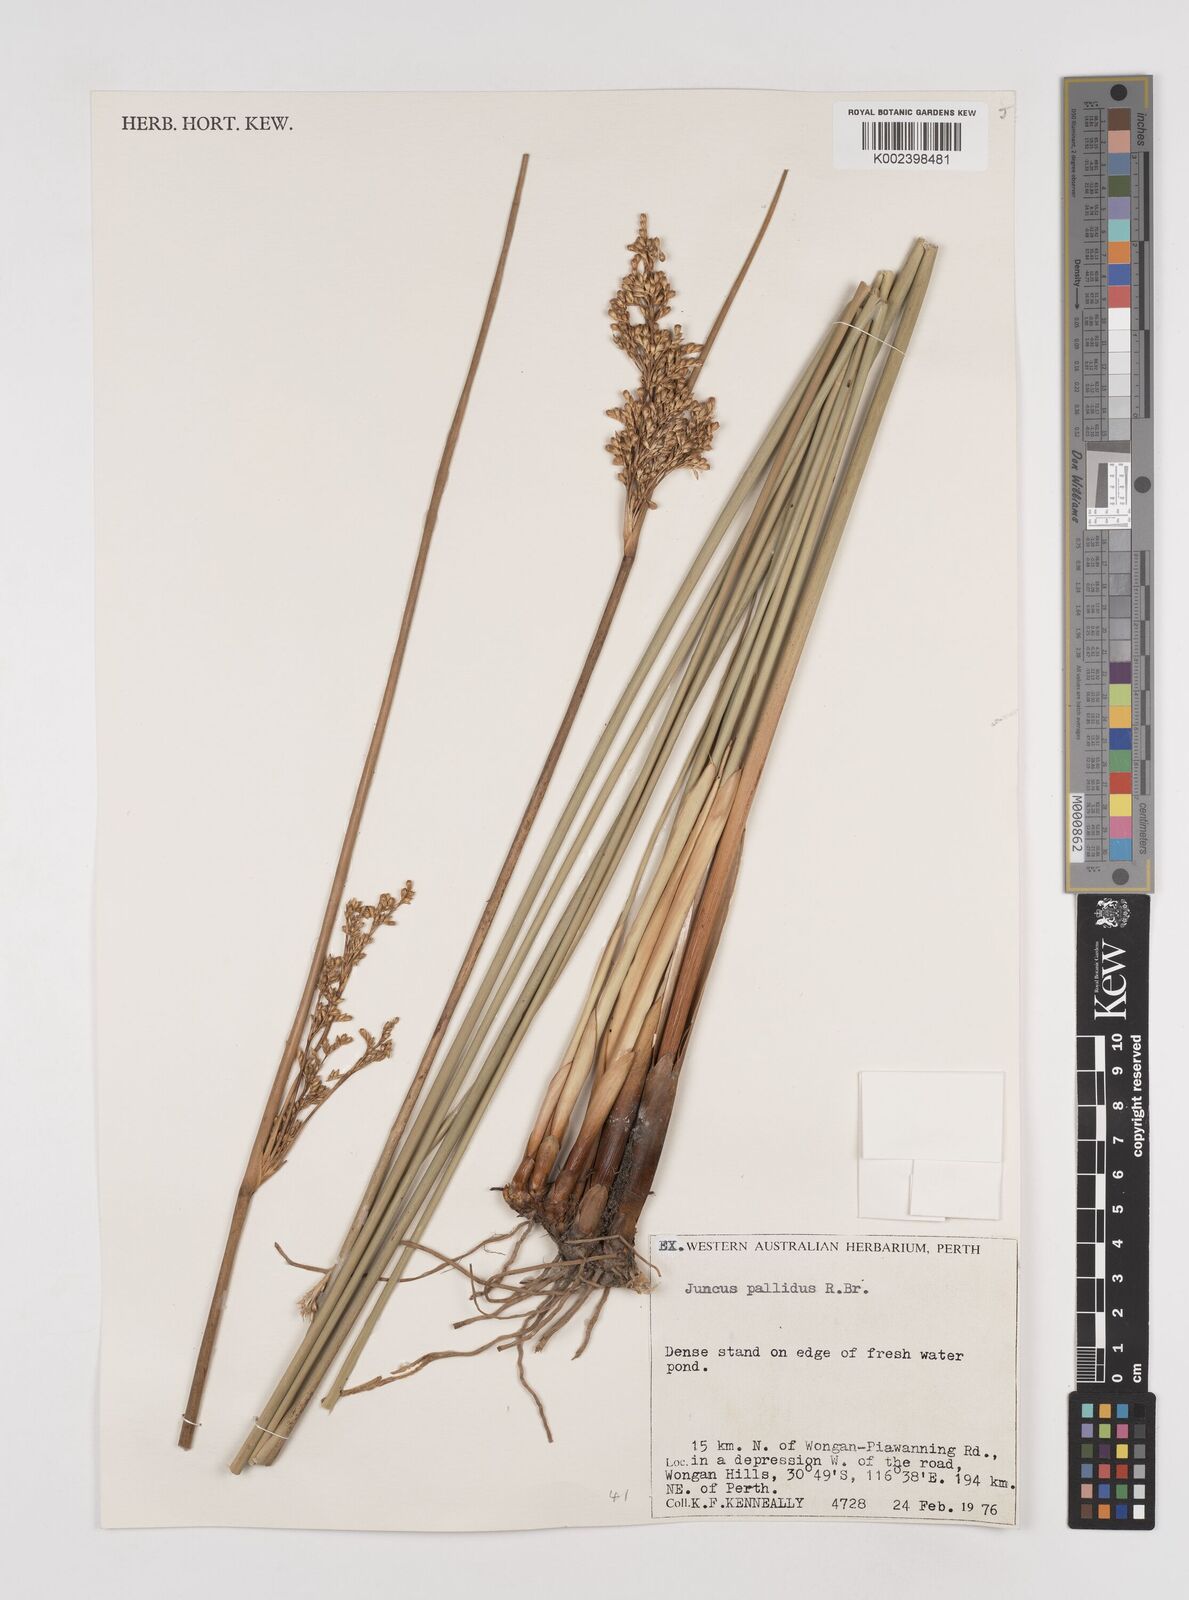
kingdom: Plantae
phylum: Tracheophyta
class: Liliopsida
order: Poales
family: Juncaceae
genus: Juncus
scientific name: Juncus pallidus
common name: Great soft-rush
